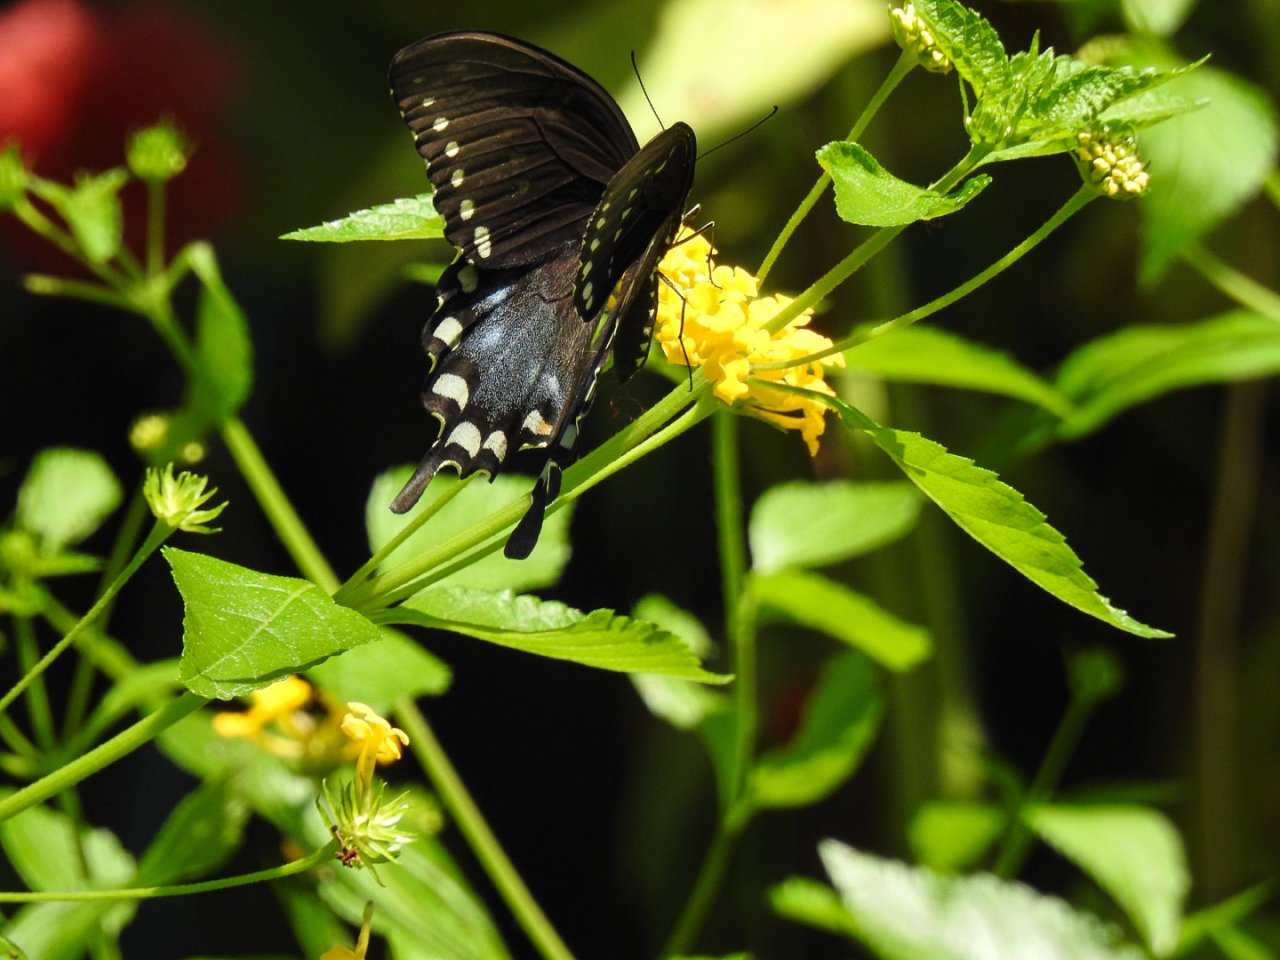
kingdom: Animalia
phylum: Arthropoda
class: Insecta
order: Lepidoptera
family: Papilionidae
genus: Pterourus
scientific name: Pterourus troilus
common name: Spicebush Swallowtail
